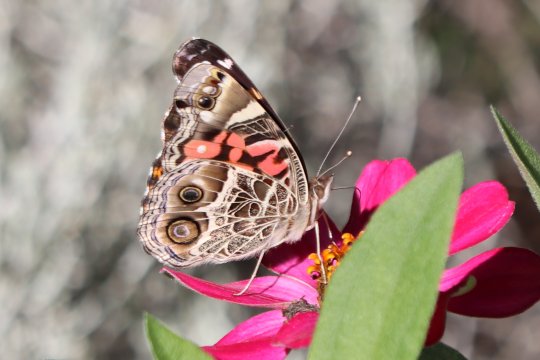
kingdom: Animalia
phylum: Arthropoda
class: Insecta
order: Lepidoptera
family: Nymphalidae
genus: Vanessa
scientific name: Vanessa virginiensis
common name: American Lady
